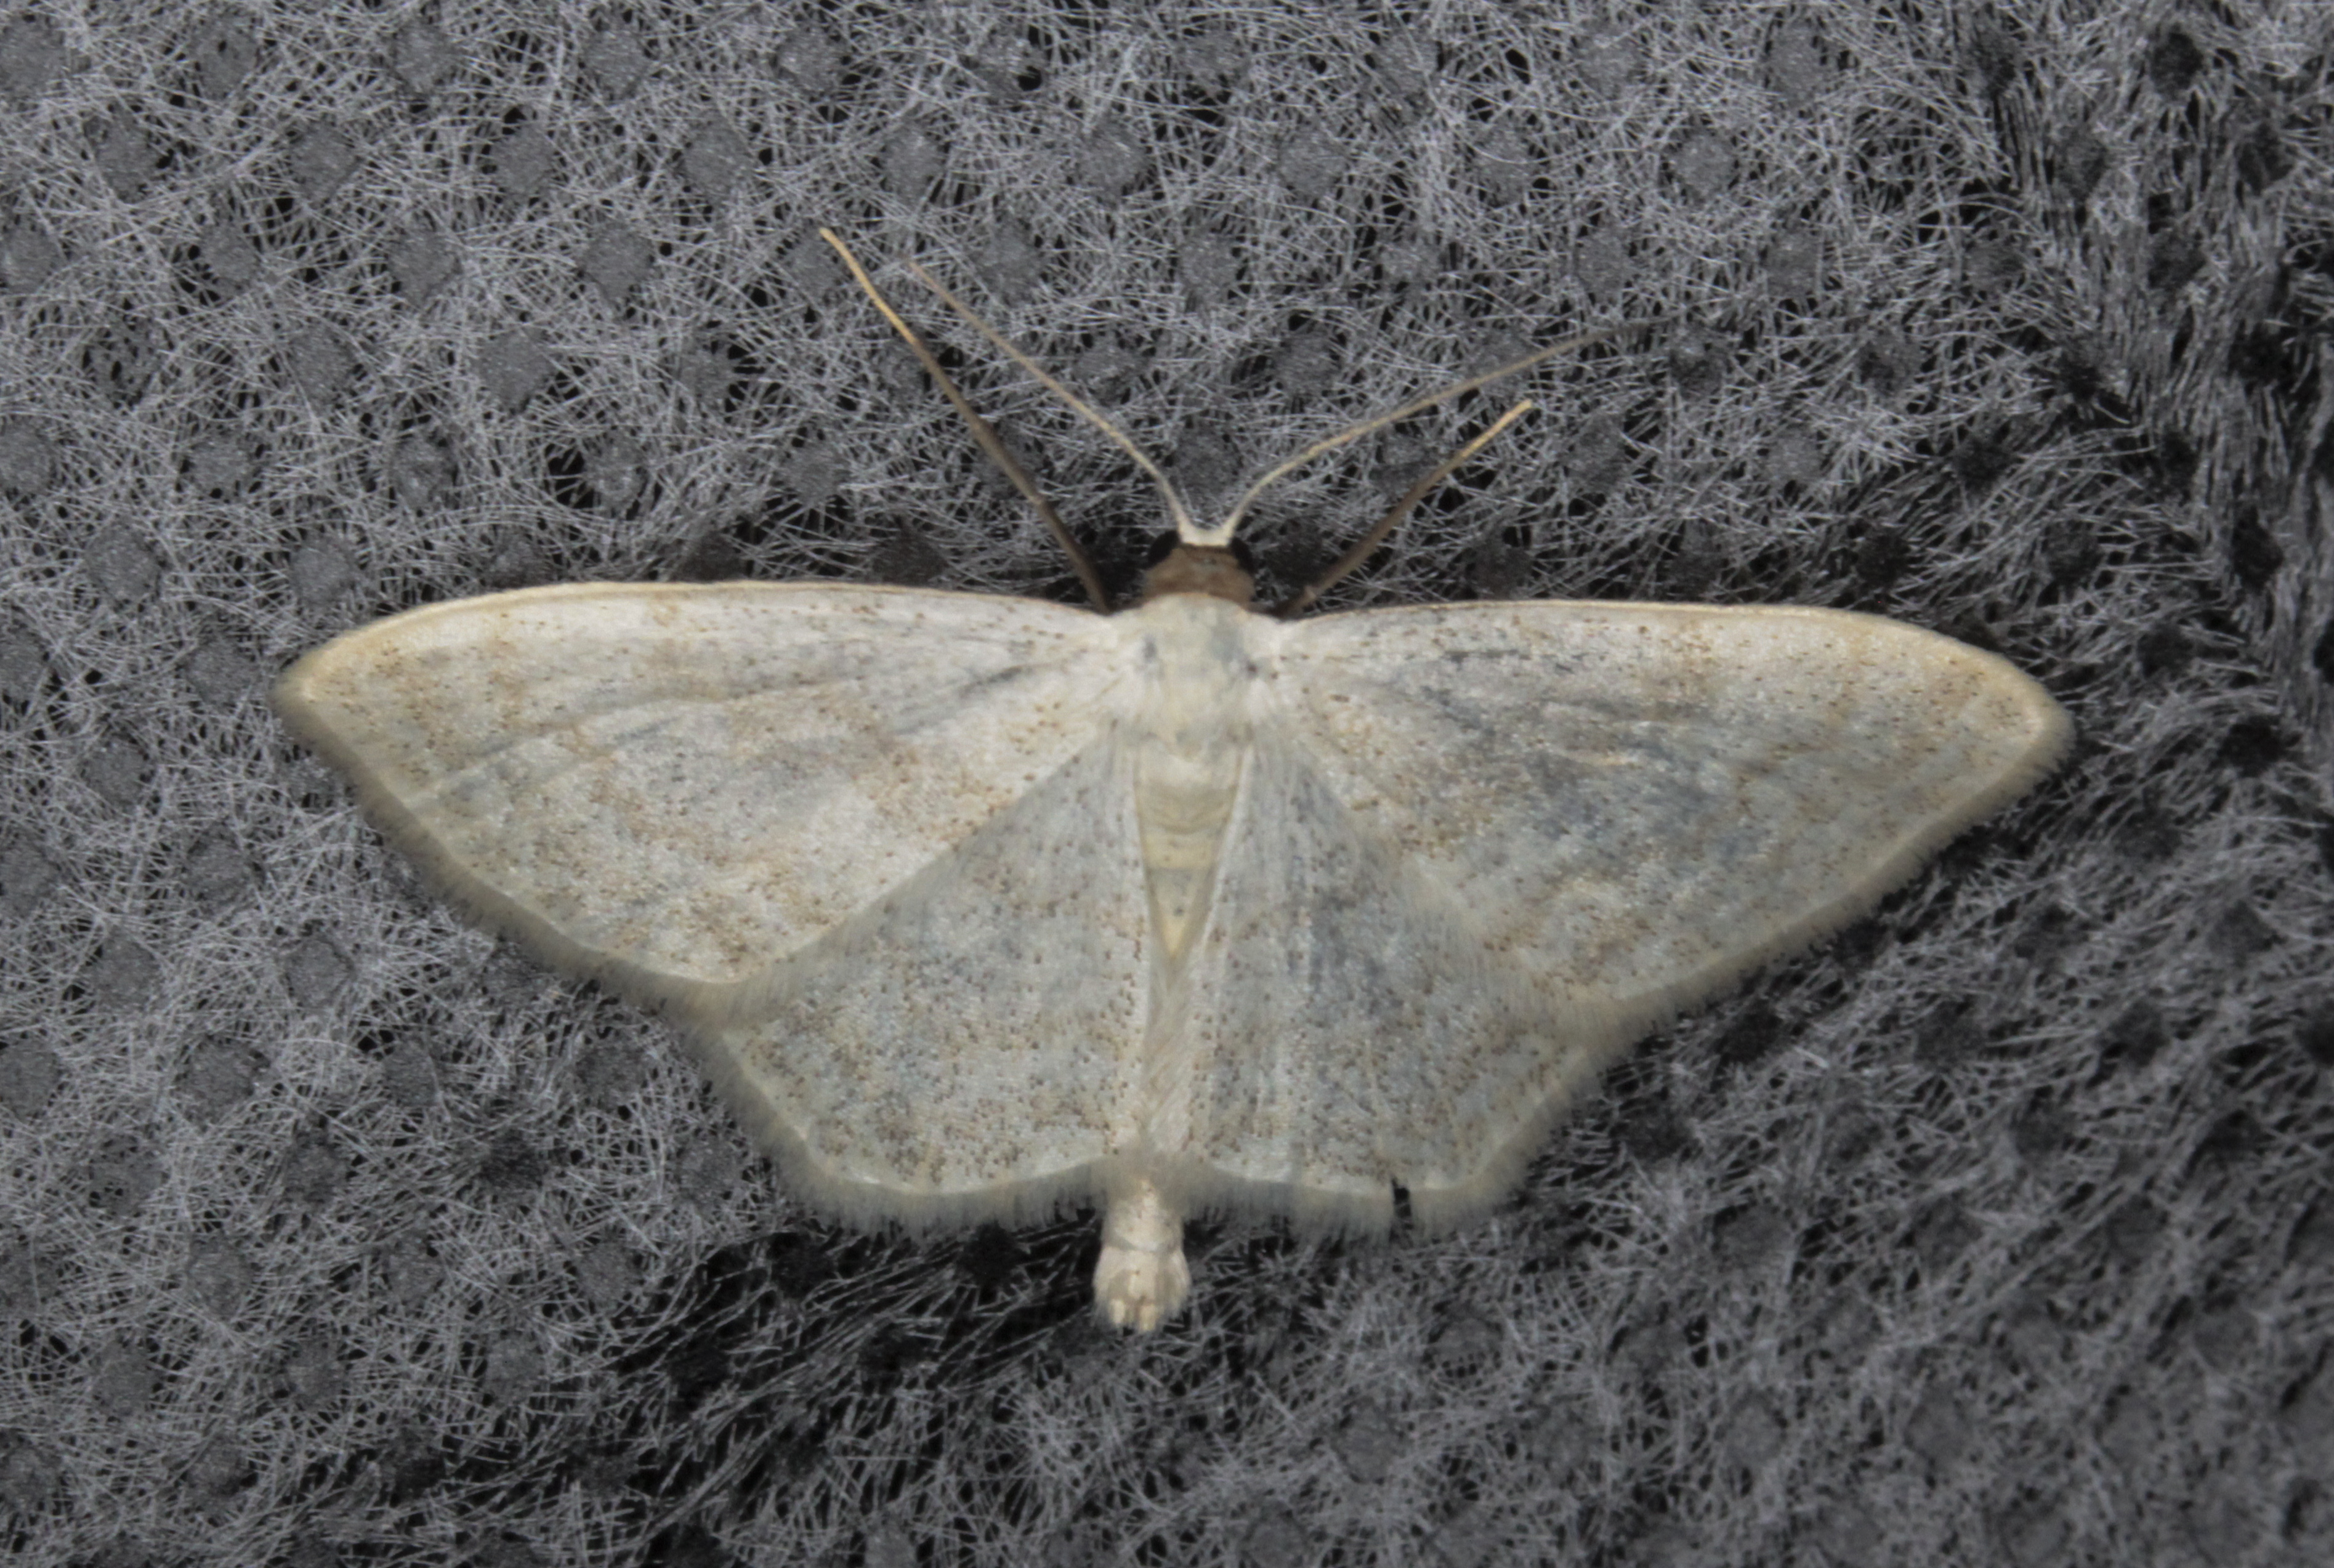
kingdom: Animalia
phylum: Arthropoda
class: Insecta
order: Lepidoptera
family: Geometridae
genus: Scopula
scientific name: Scopula floslactata
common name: Cream wave
